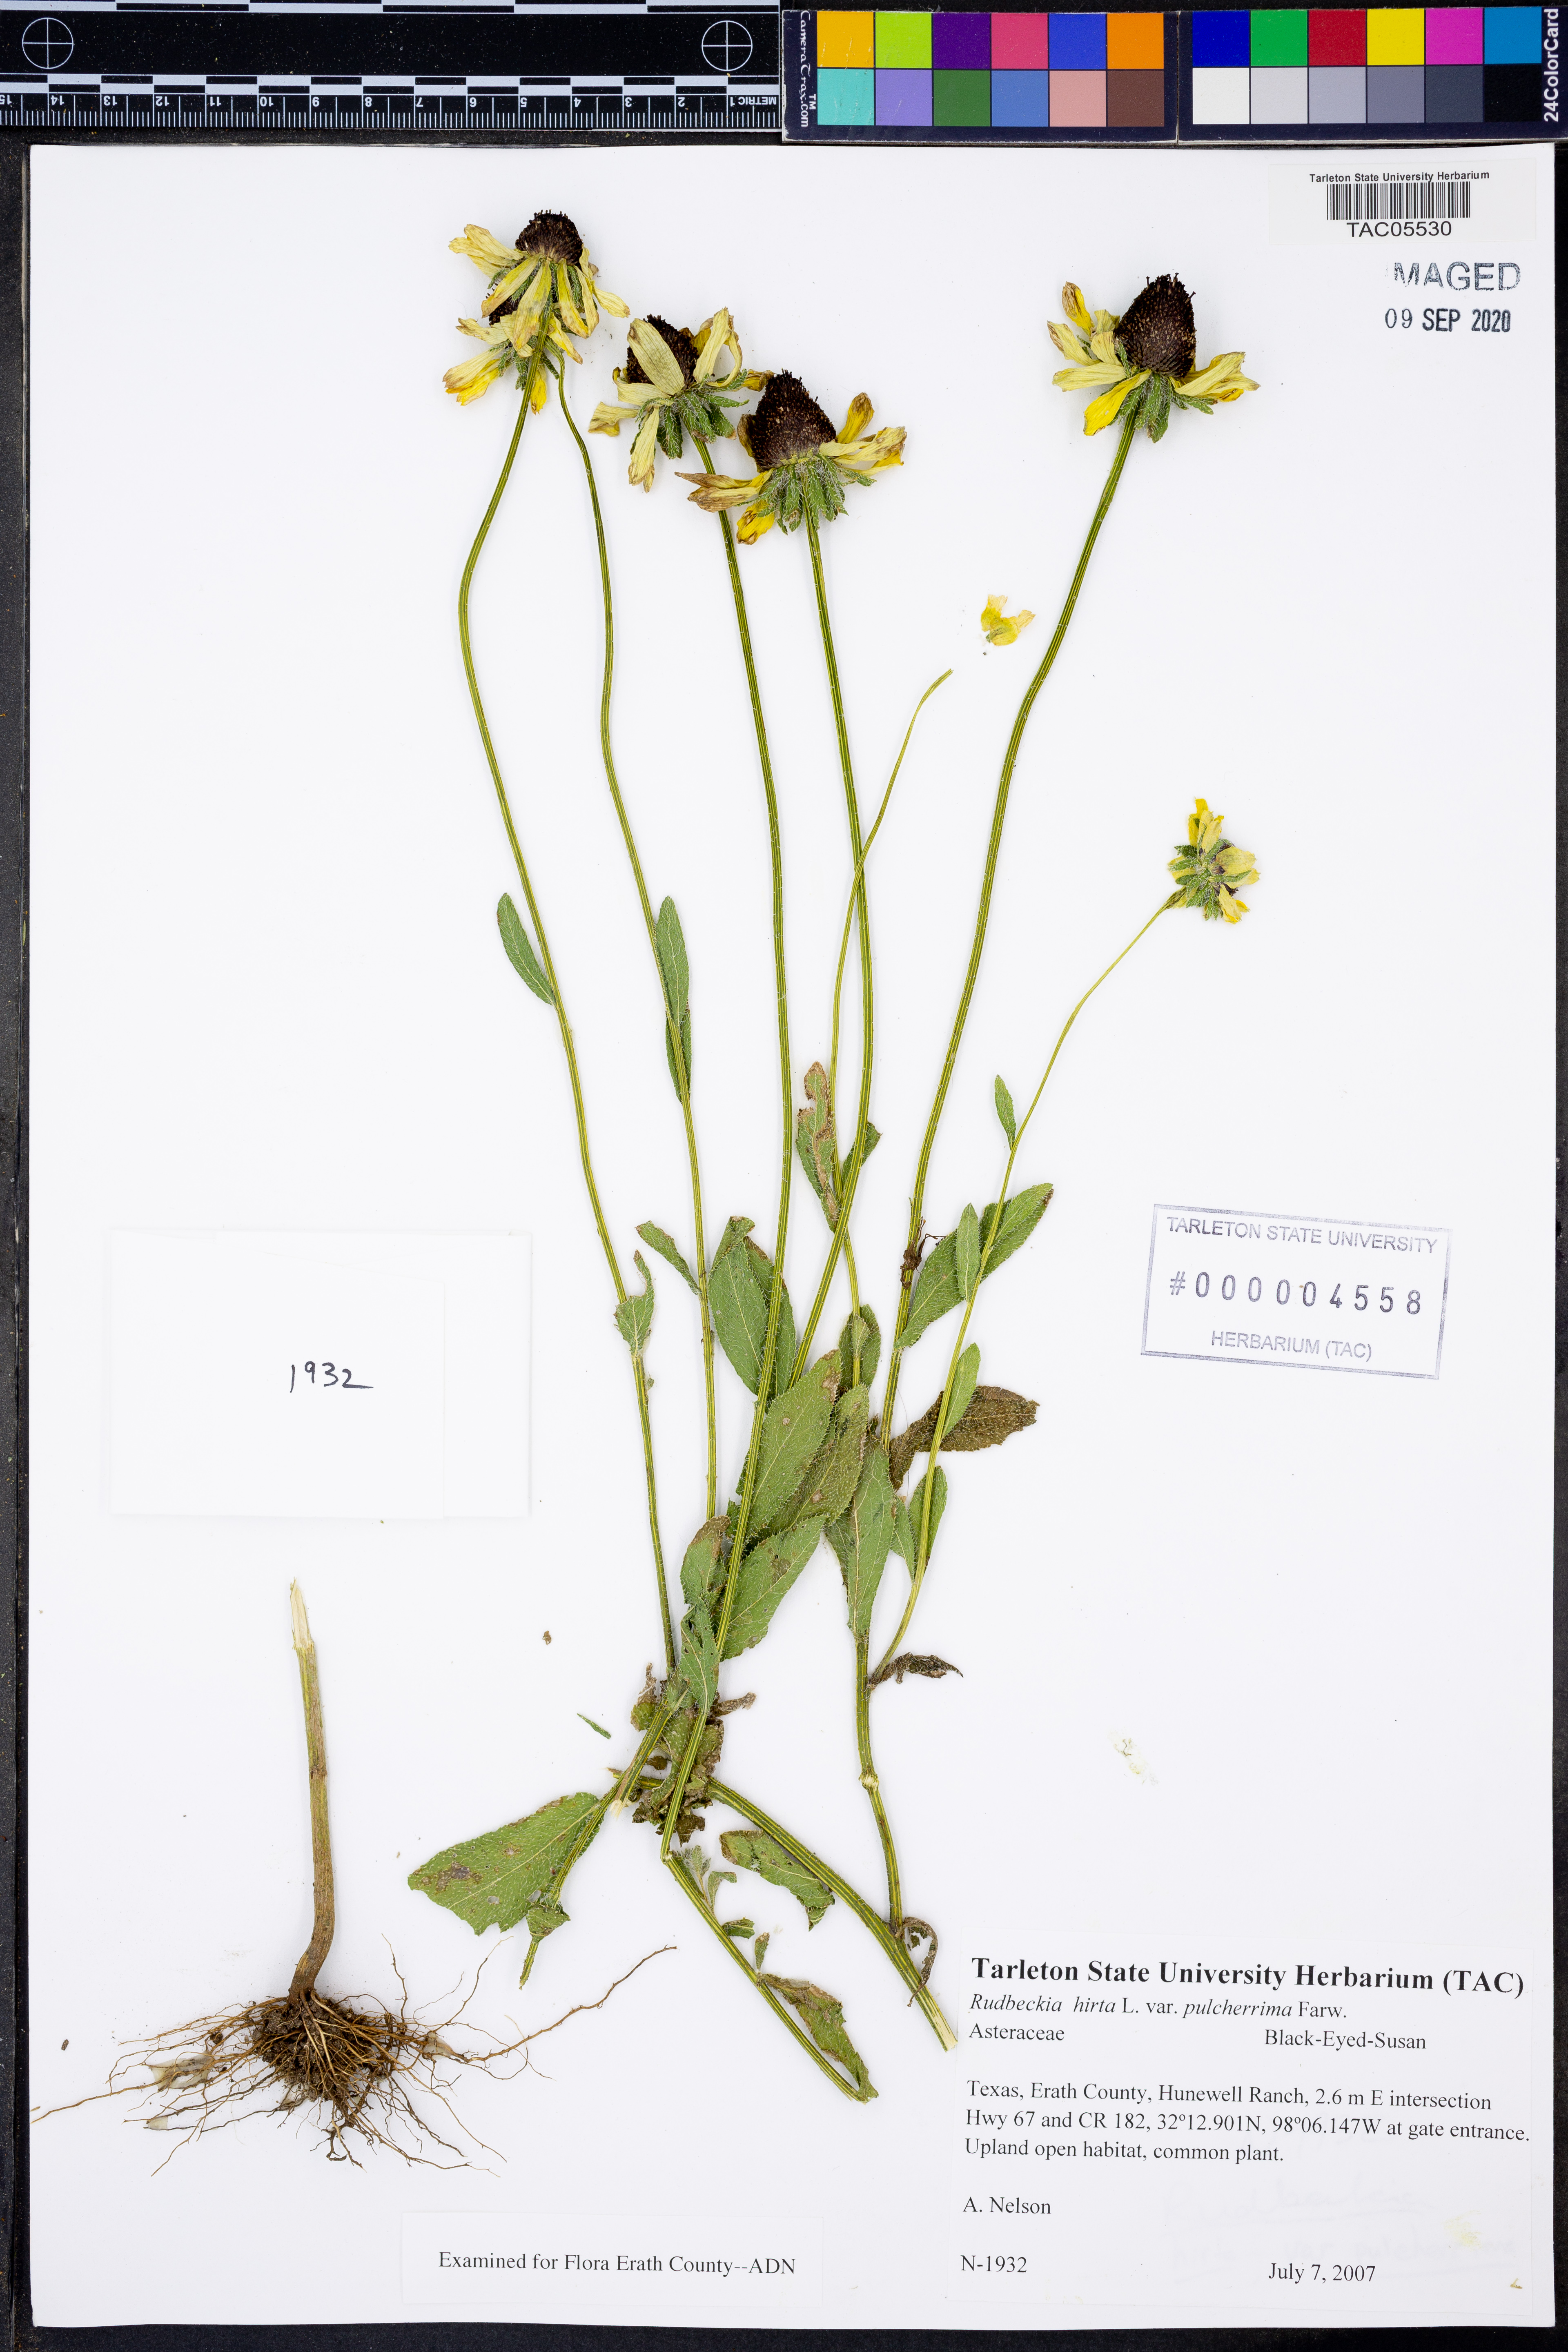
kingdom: Plantae
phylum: Tracheophyta
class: Magnoliopsida
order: Asterales
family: Asteraceae
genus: Rudbeckia
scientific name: Rudbeckia hirta
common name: Black-eyed-susan
